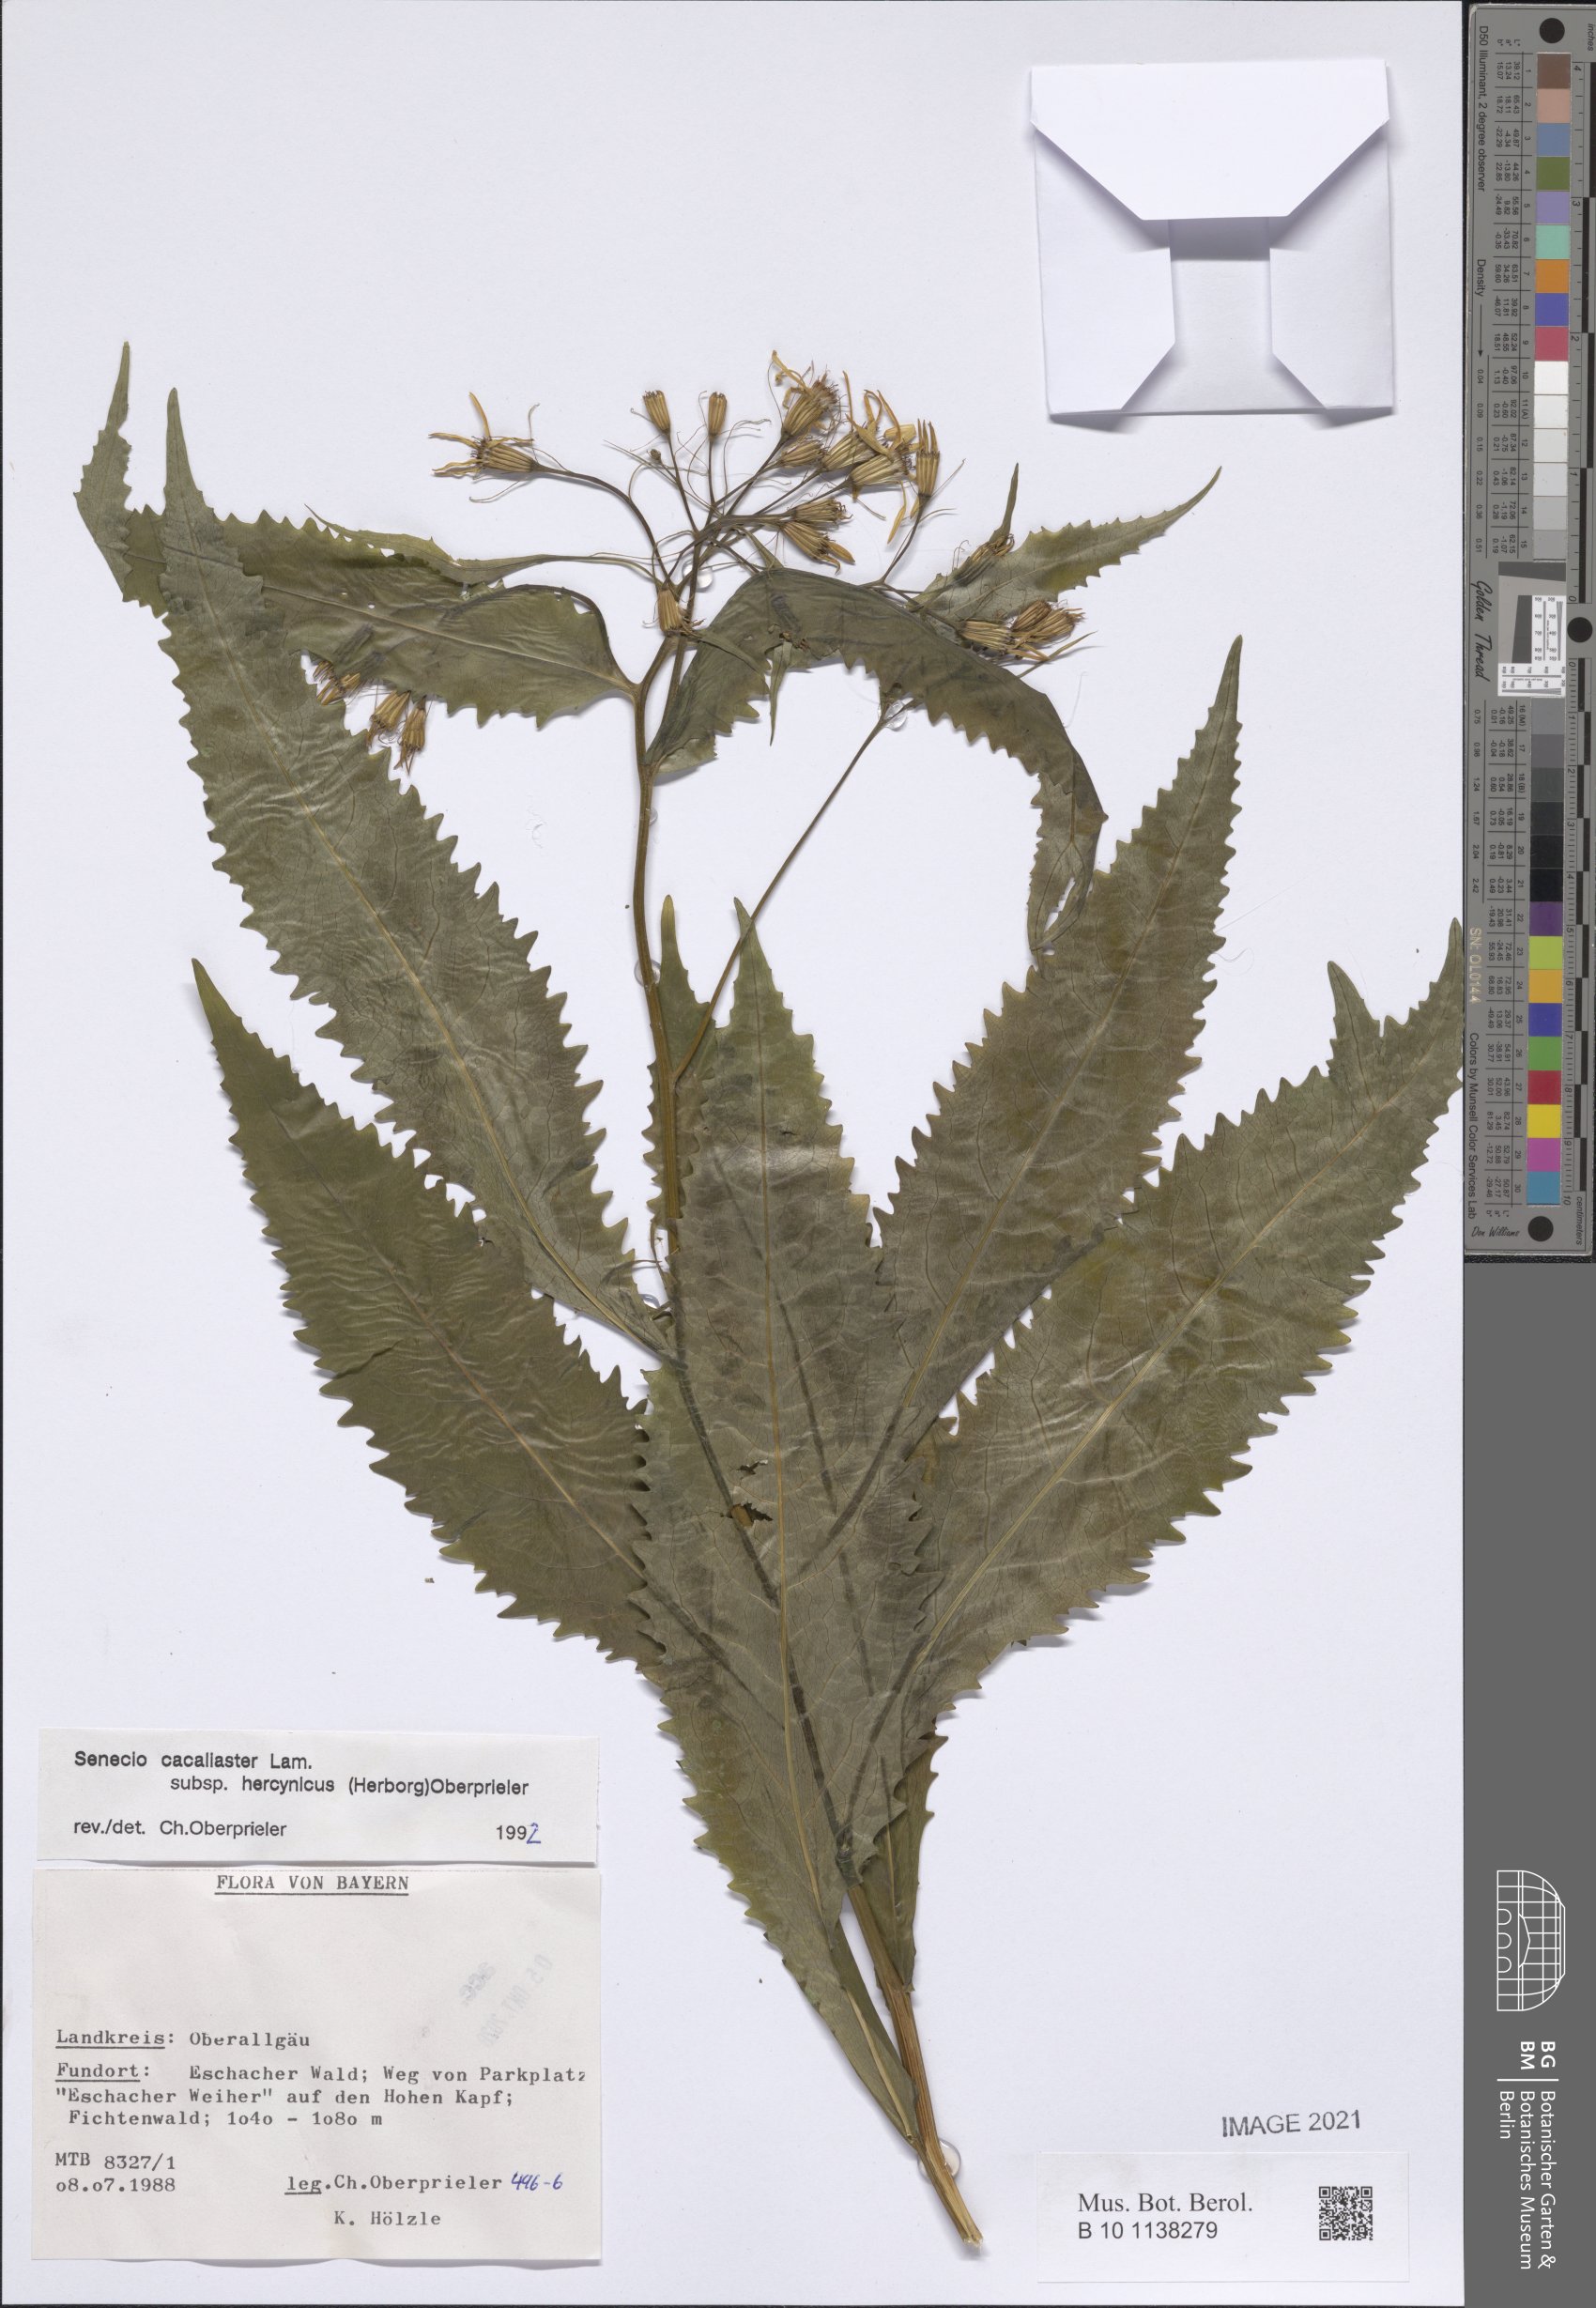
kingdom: Plantae
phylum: Tracheophyta
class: Magnoliopsida
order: Asterales
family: Asteraceae
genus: Senecio
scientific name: Senecio hercynicus
